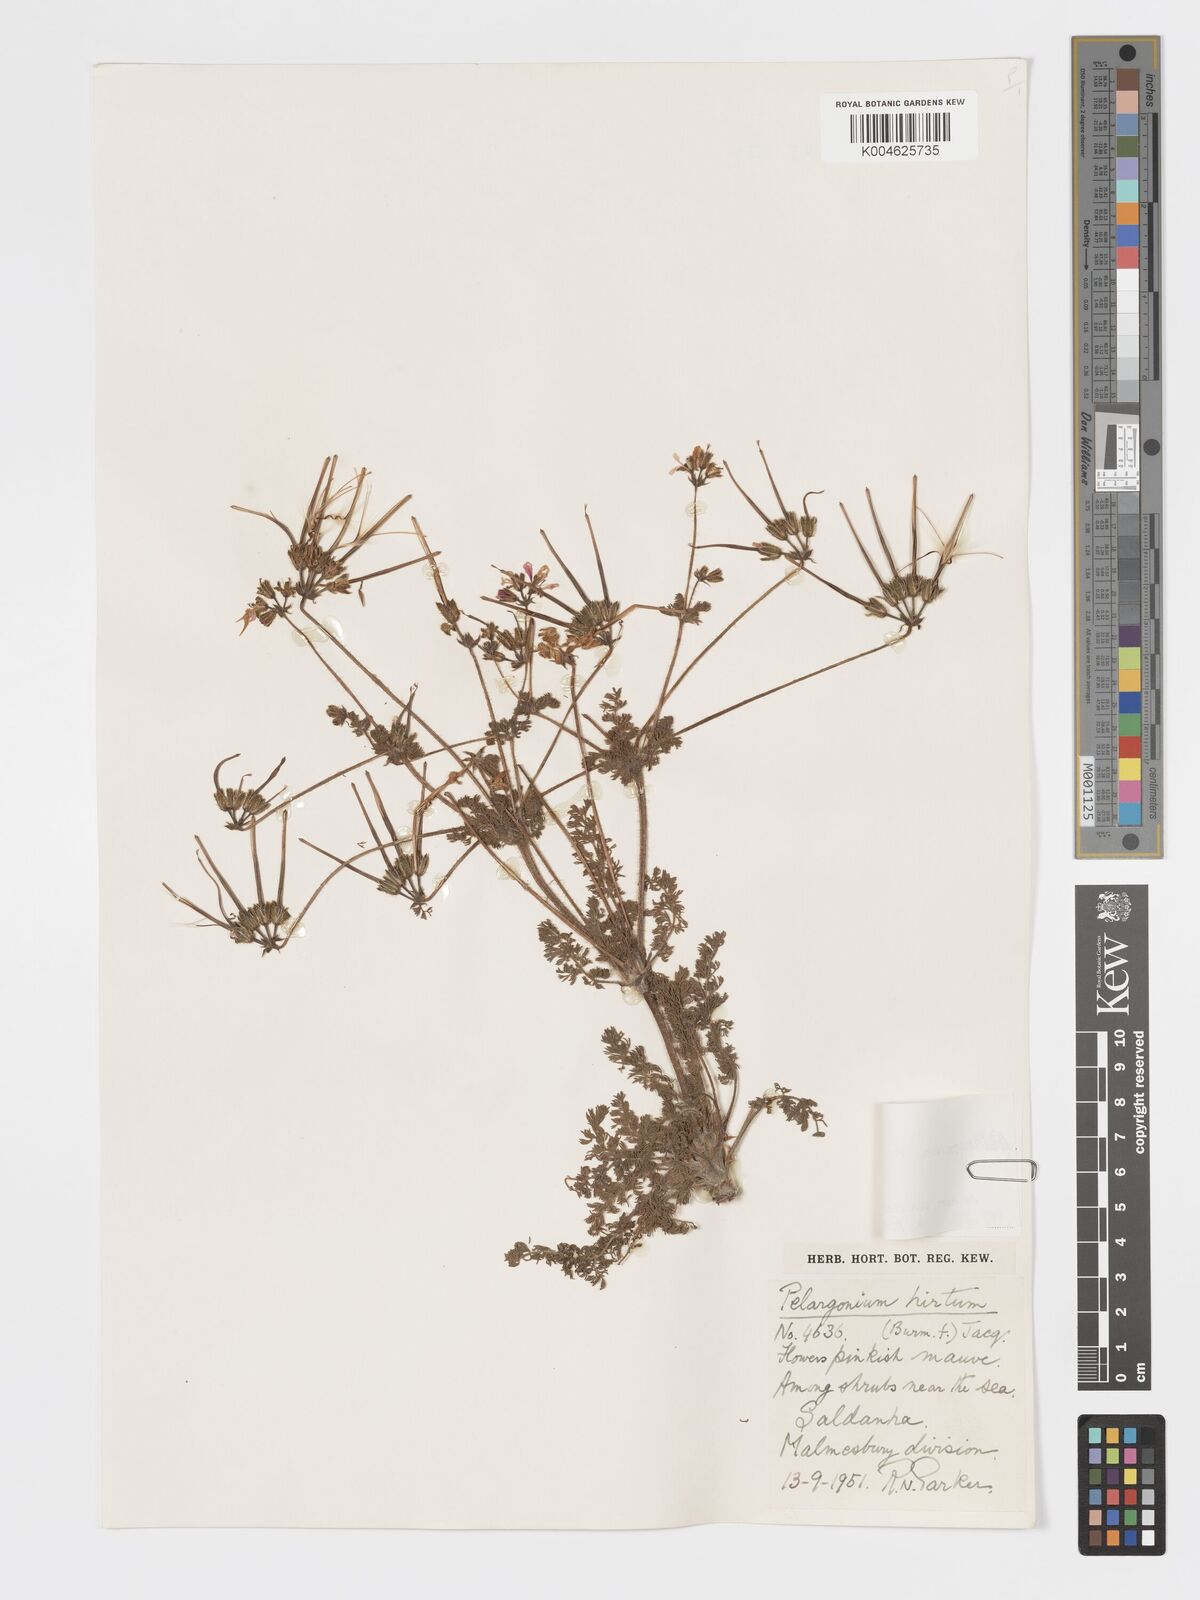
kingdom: Plantae
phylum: Tracheophyta
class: Magnoliopsida
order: Geraniales
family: Geraniaceae
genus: Pelargonium
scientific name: Pelargonium
